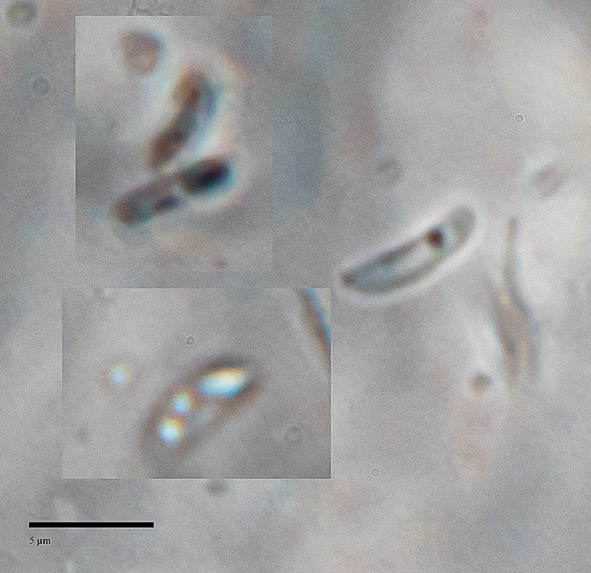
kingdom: Fungi
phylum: Basidiomycota
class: Agaricomycetes
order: Polyporales
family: Dacryobolaceae
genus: Dacryobolus
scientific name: Dacryobolus karstenii
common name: glat vulkanskorpe
